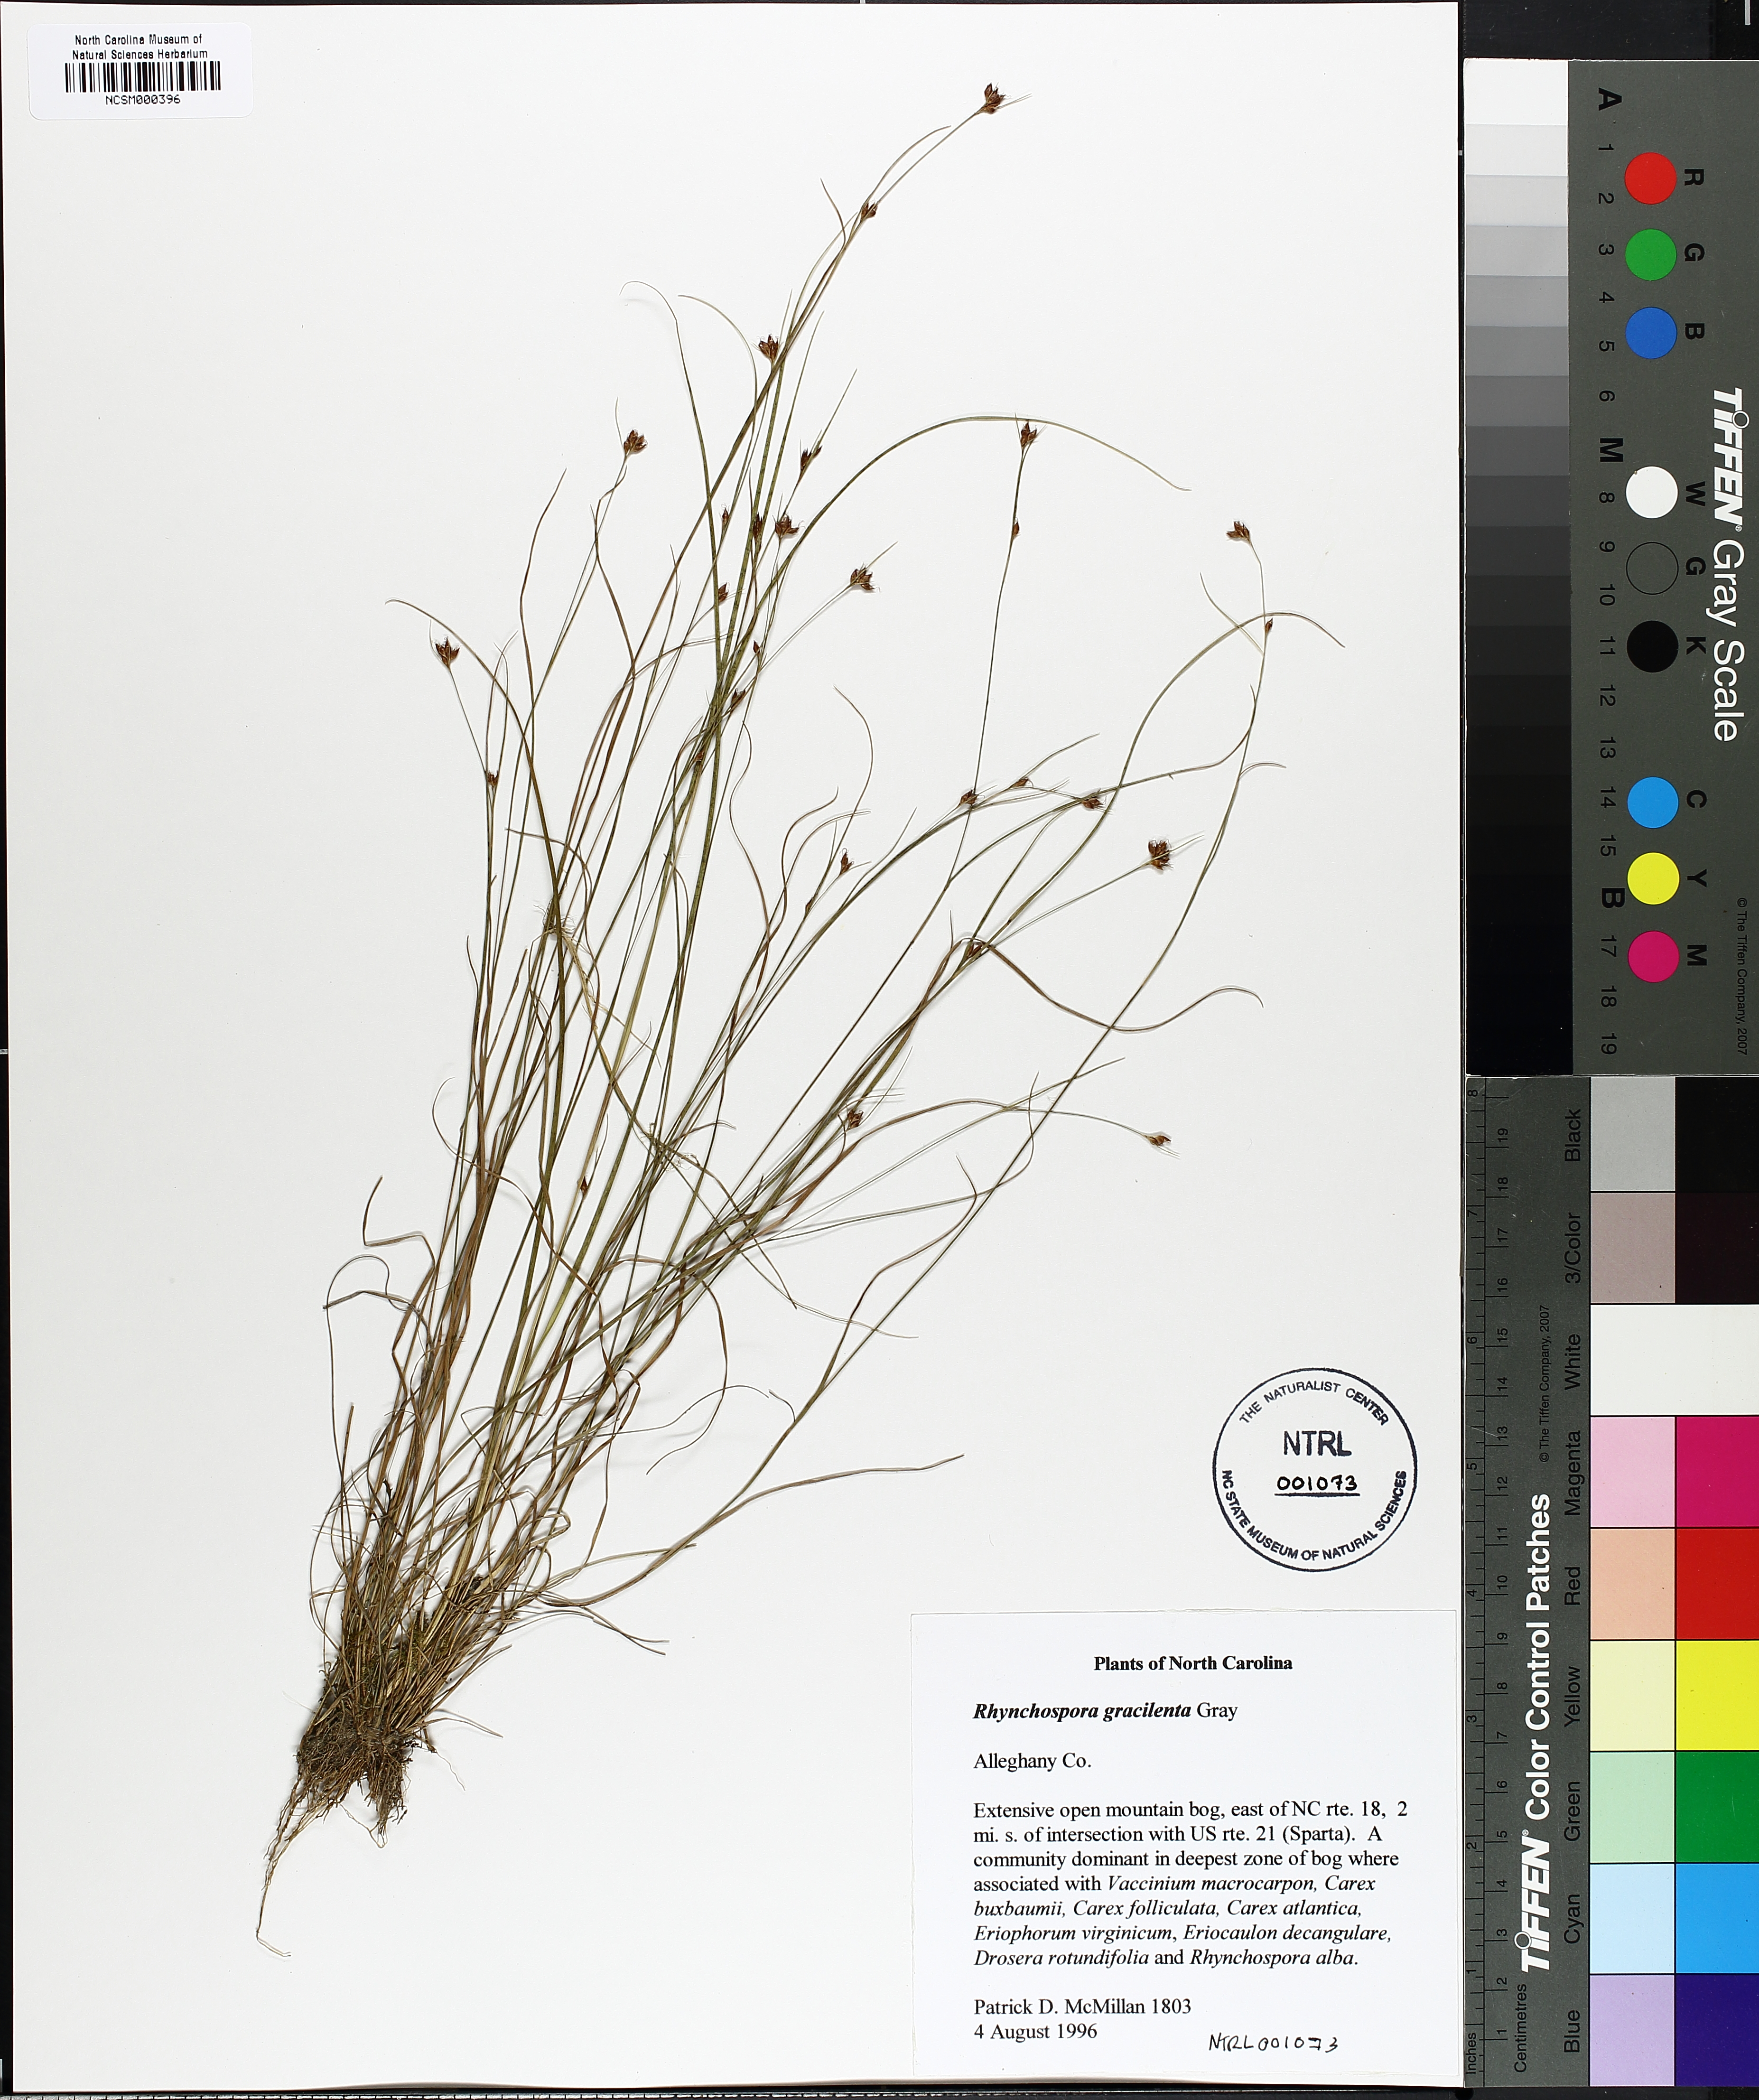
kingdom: Plantae
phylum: Tracheophyta
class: Liliopsida
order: Poales
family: Cyperaceae
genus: Rhynchospora
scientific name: Rhynchospora gracilenta
